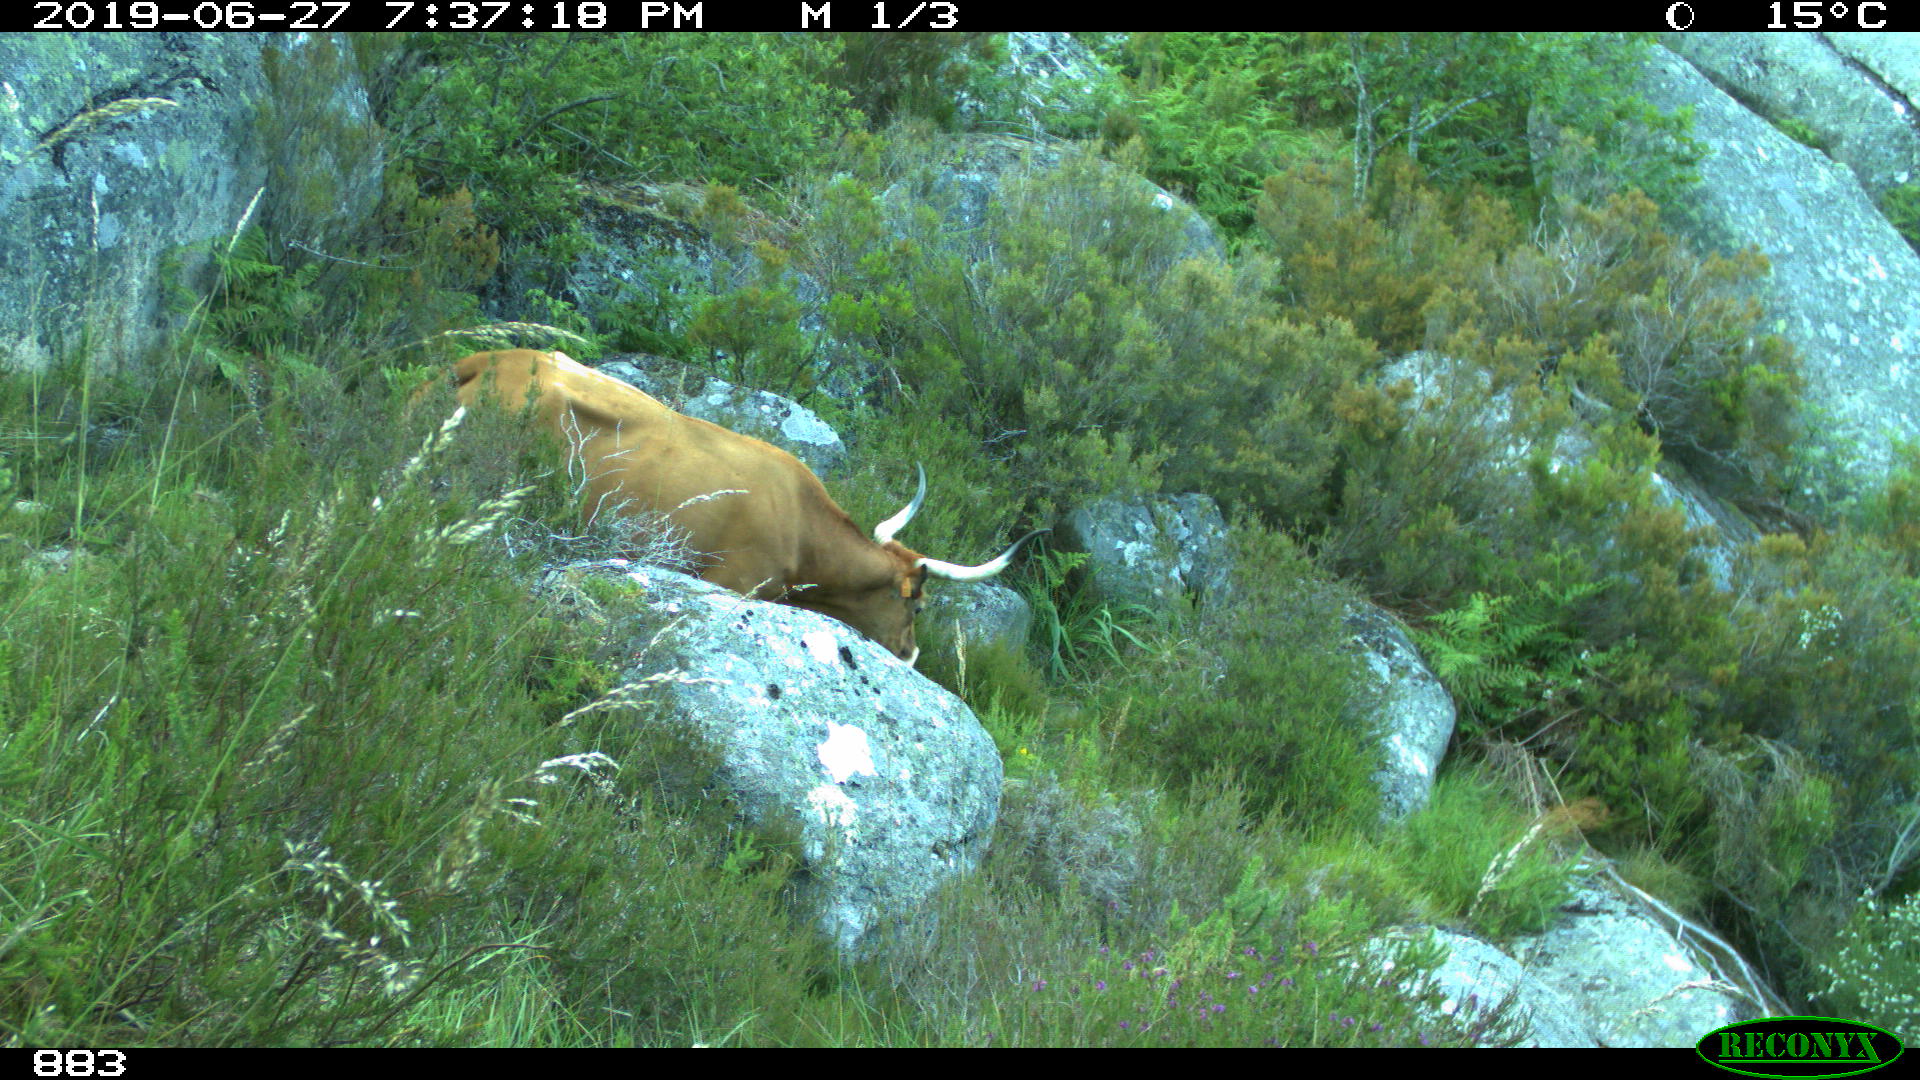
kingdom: Animalia
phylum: Chordata
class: Mammalia
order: Artiodactyla
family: Bovidae
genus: Bos
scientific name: Bos taurus
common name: Domesticated cattle
